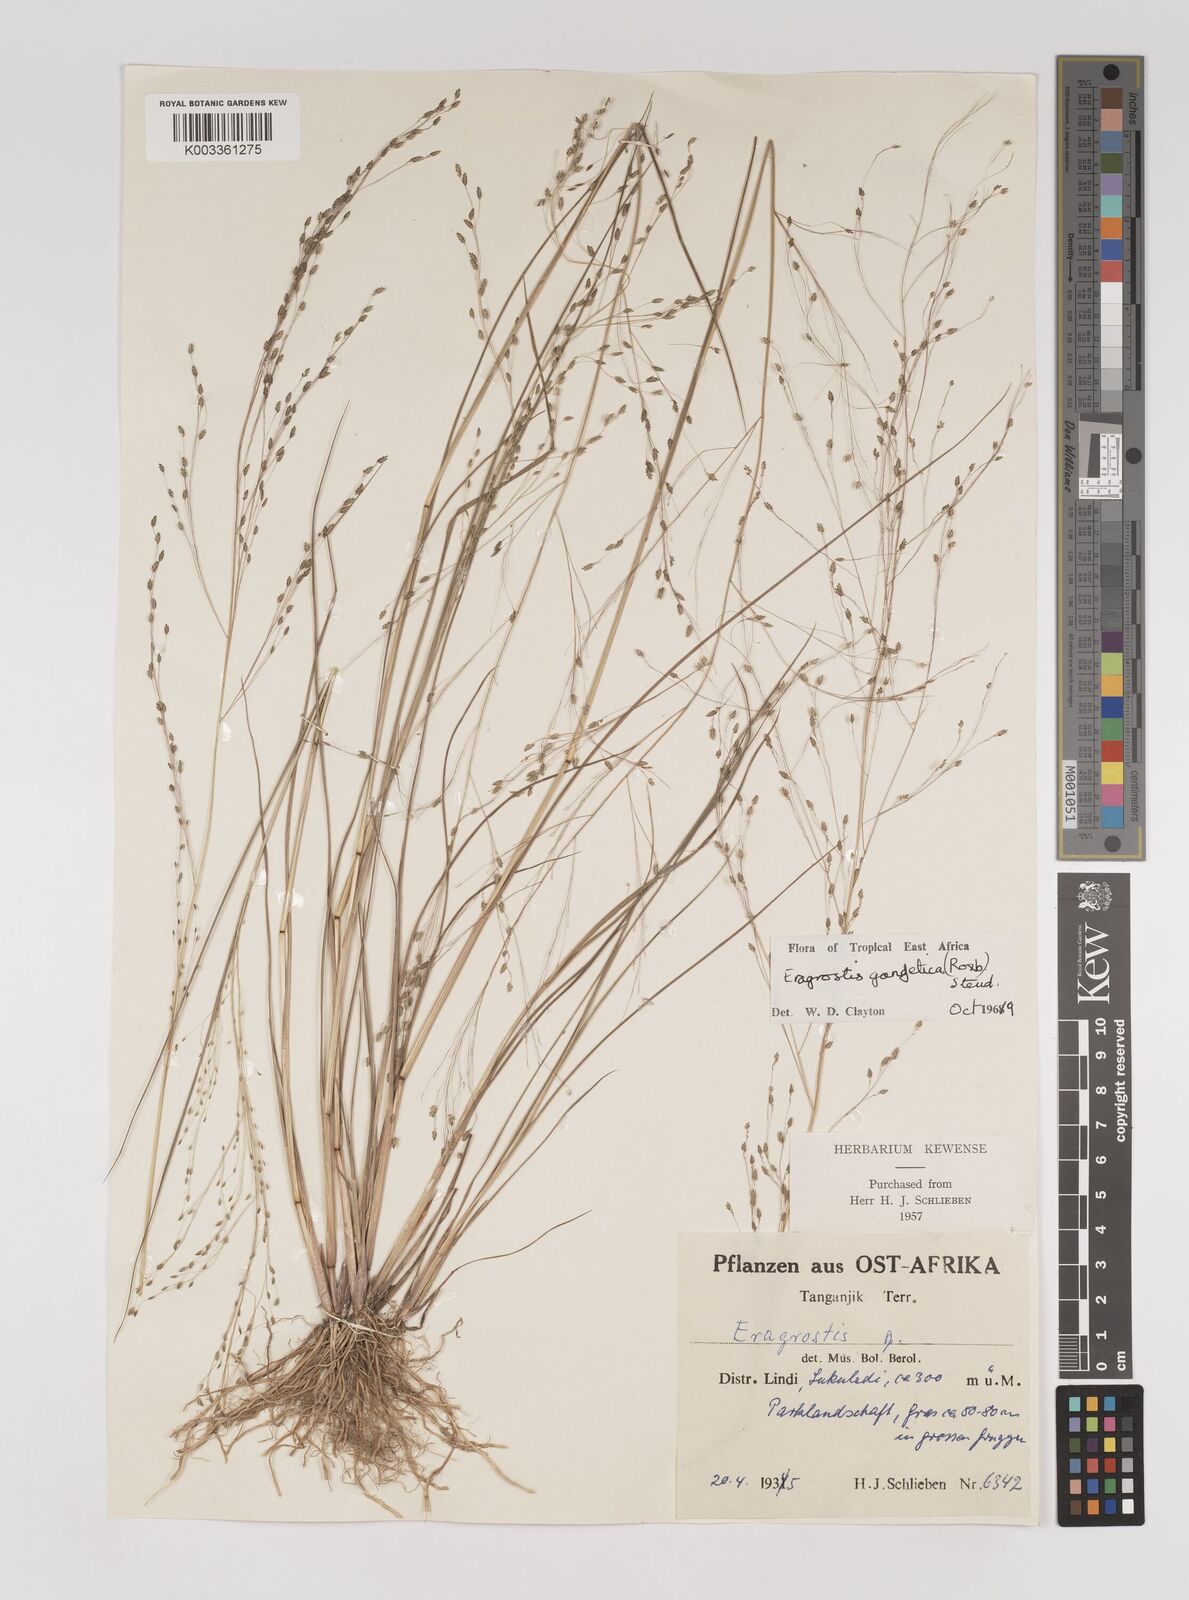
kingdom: Plantae
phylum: Tracheophyta
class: Liliopsida
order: Poales
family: Poaceae
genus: Eragrostis
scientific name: Eragrostis gangetica
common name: Slimflower lovegrass
